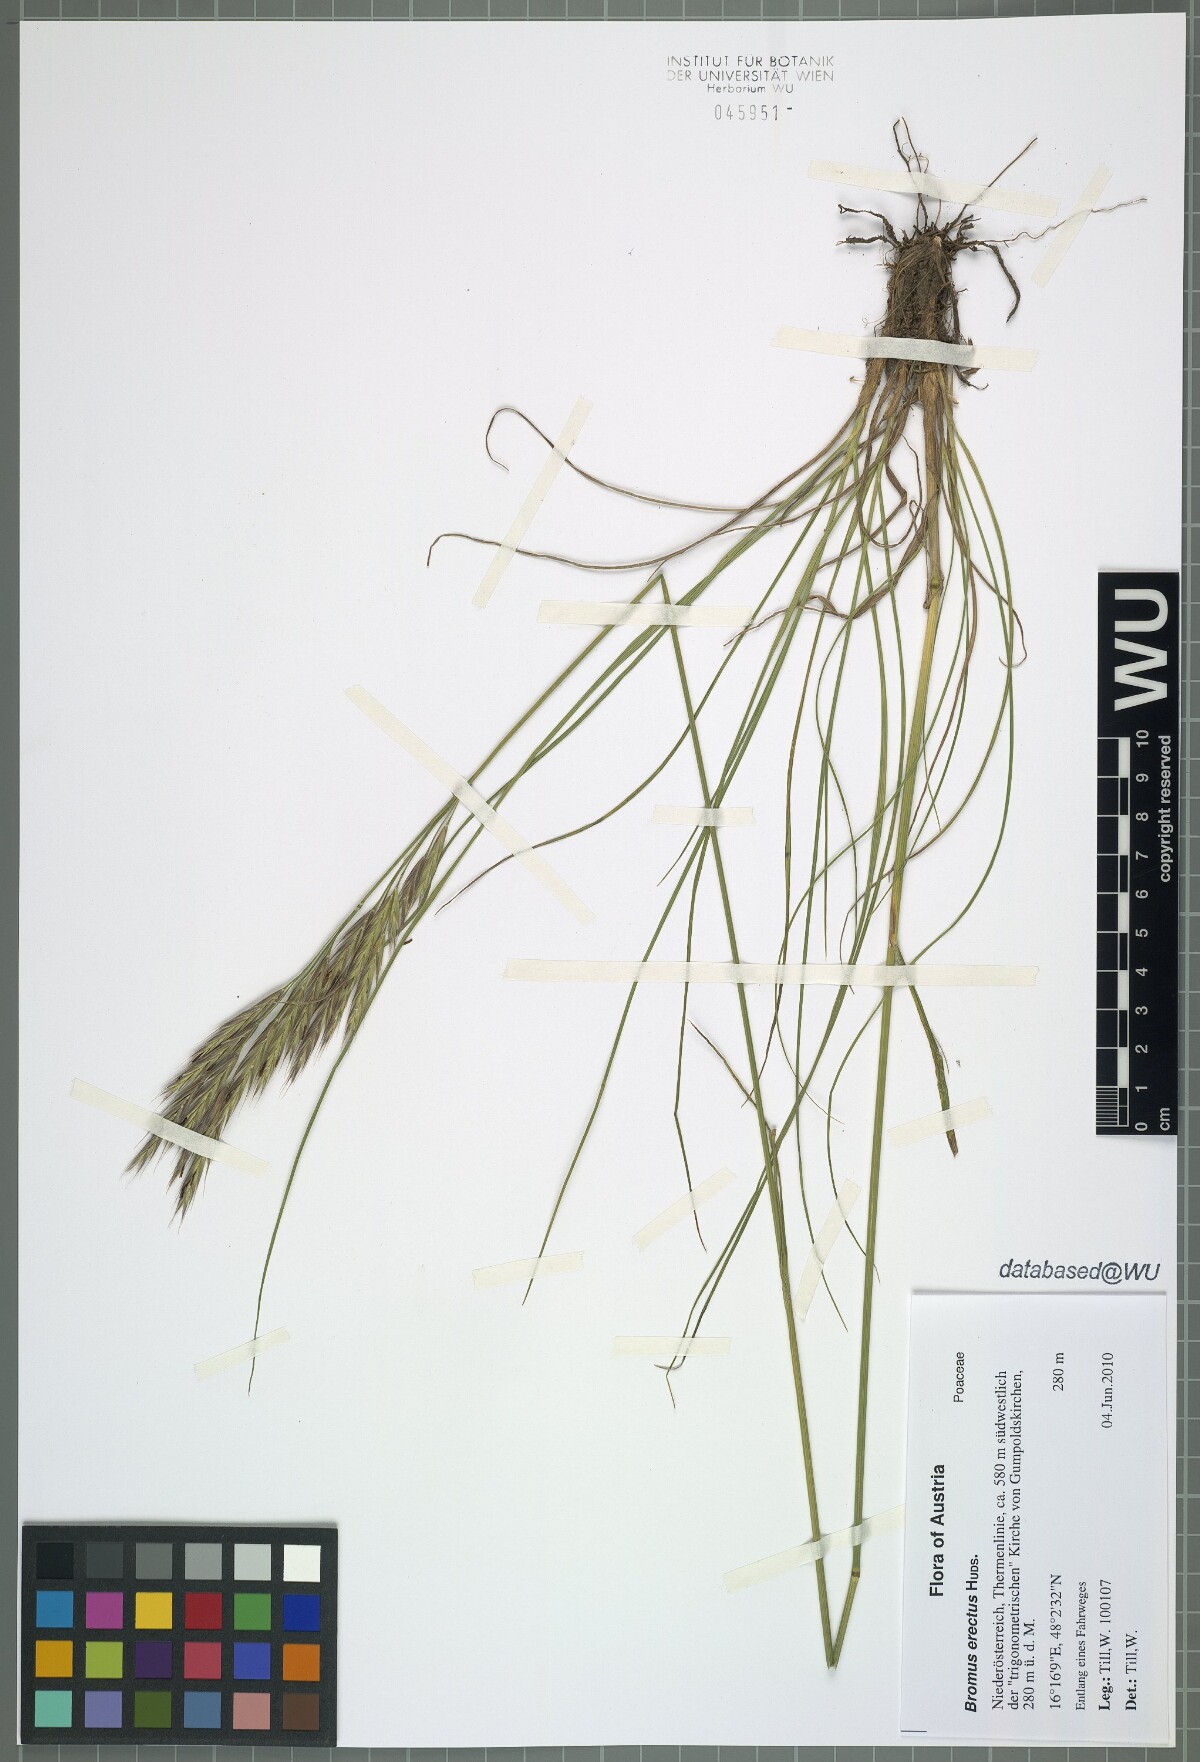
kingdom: Plantae
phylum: Tracheophyta
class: Liliopsida
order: Poales
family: Poaceae
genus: Bromus
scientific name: Bromus erectus
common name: Erect brome
